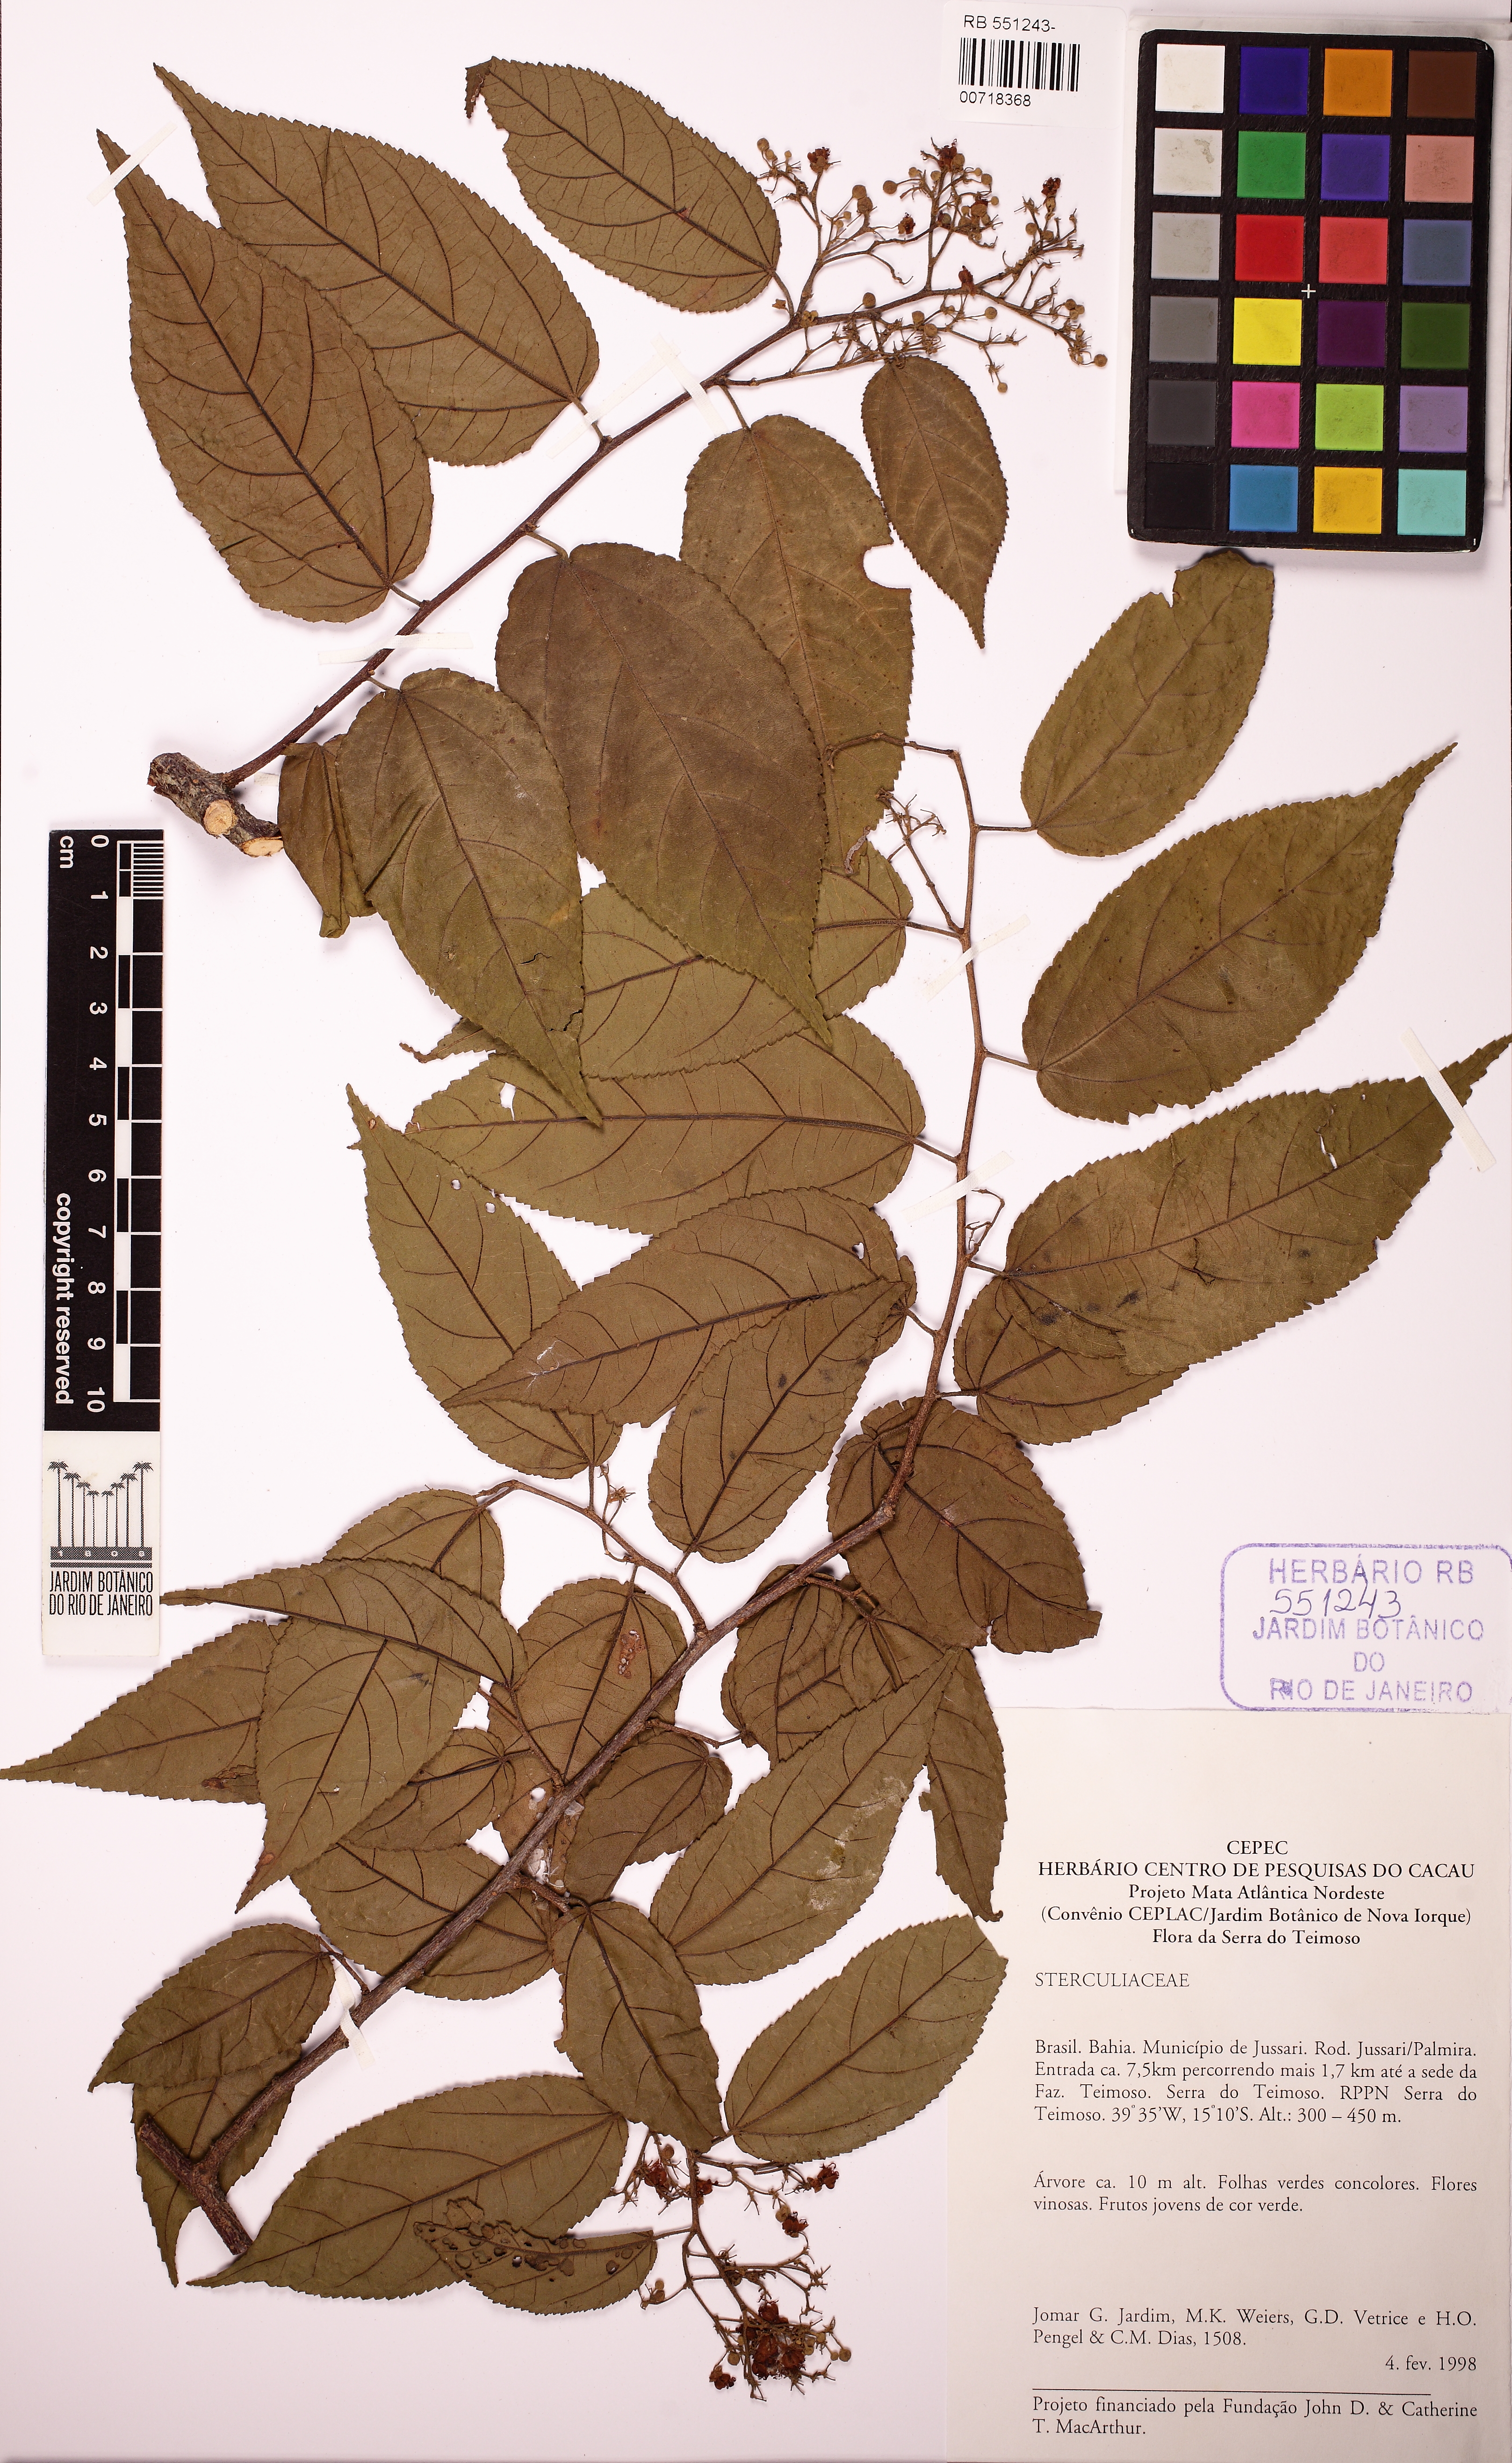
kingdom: Plantae
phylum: Tracheophyta
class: Magnoliopsida
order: Malvales
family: Malvaceae
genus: Guazuma
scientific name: Guazuma ulmifolia
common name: Bastard-cedar
